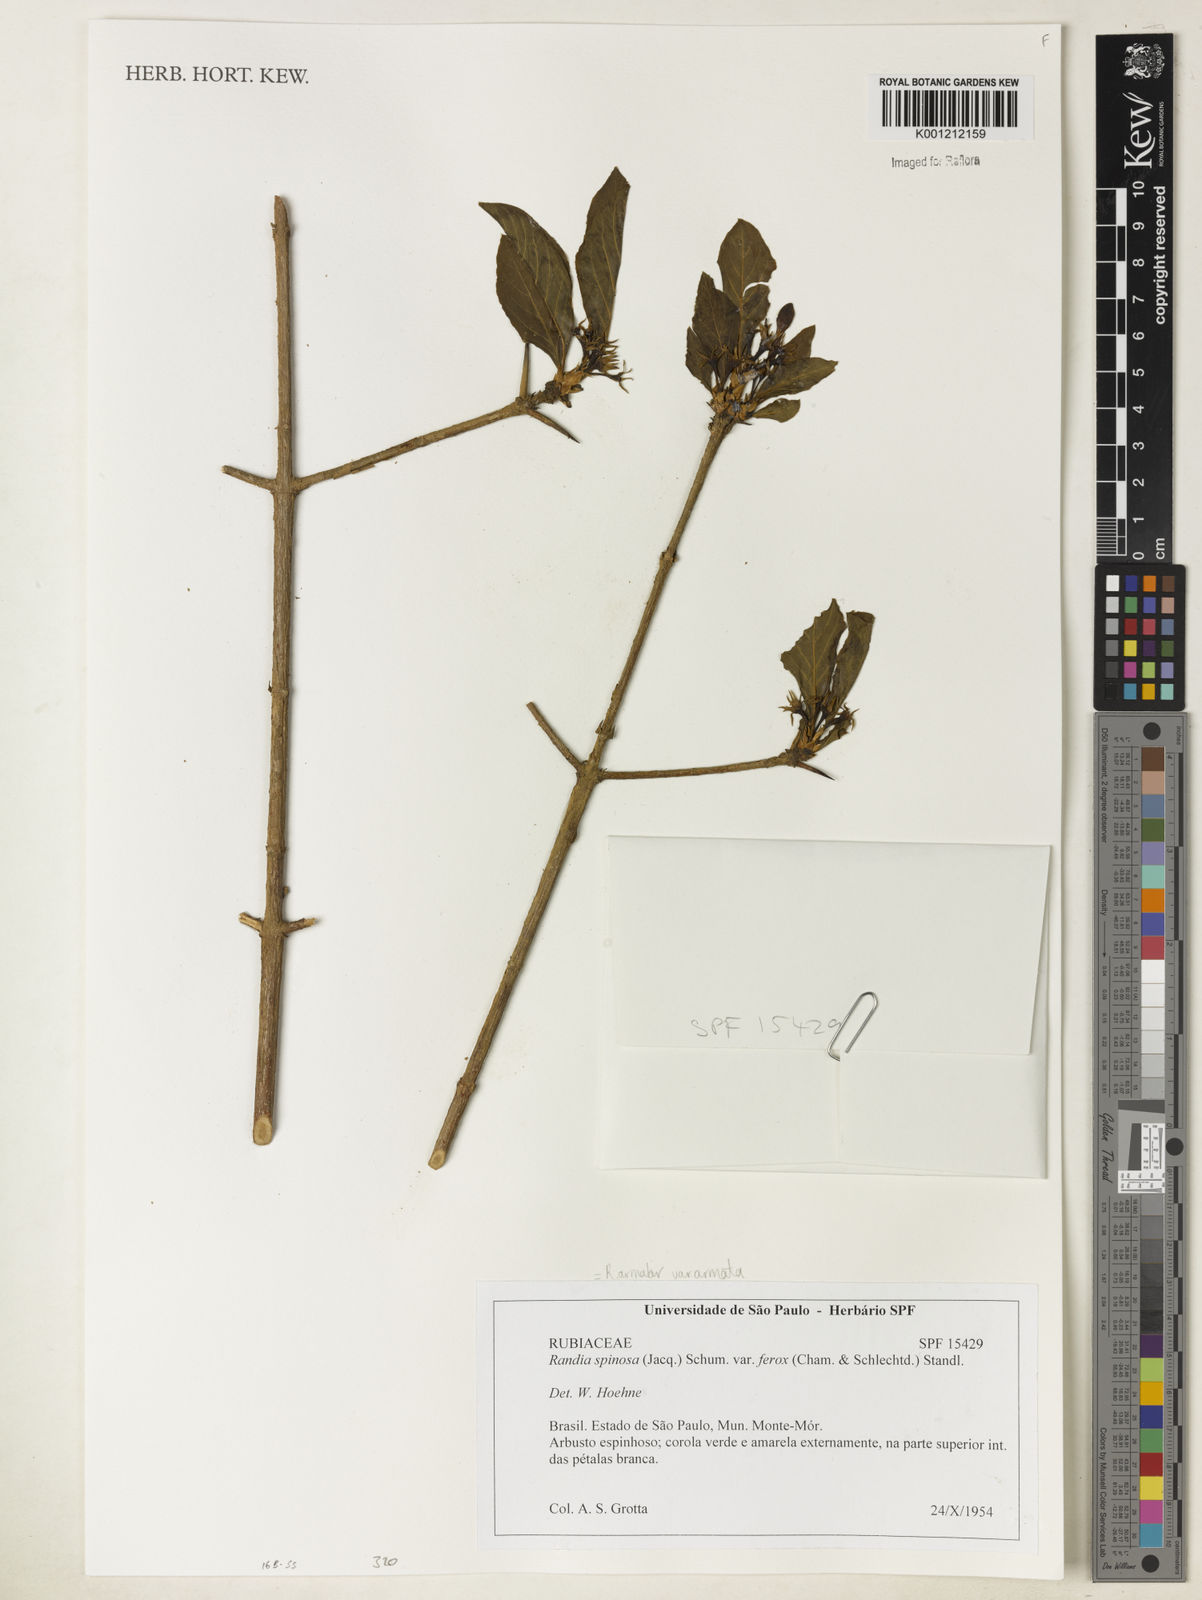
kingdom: Plantae
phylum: Tracheophyta
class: Magnoliopsida
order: Gentianales
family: Rubiaceae
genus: Randia
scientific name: Randia armata
